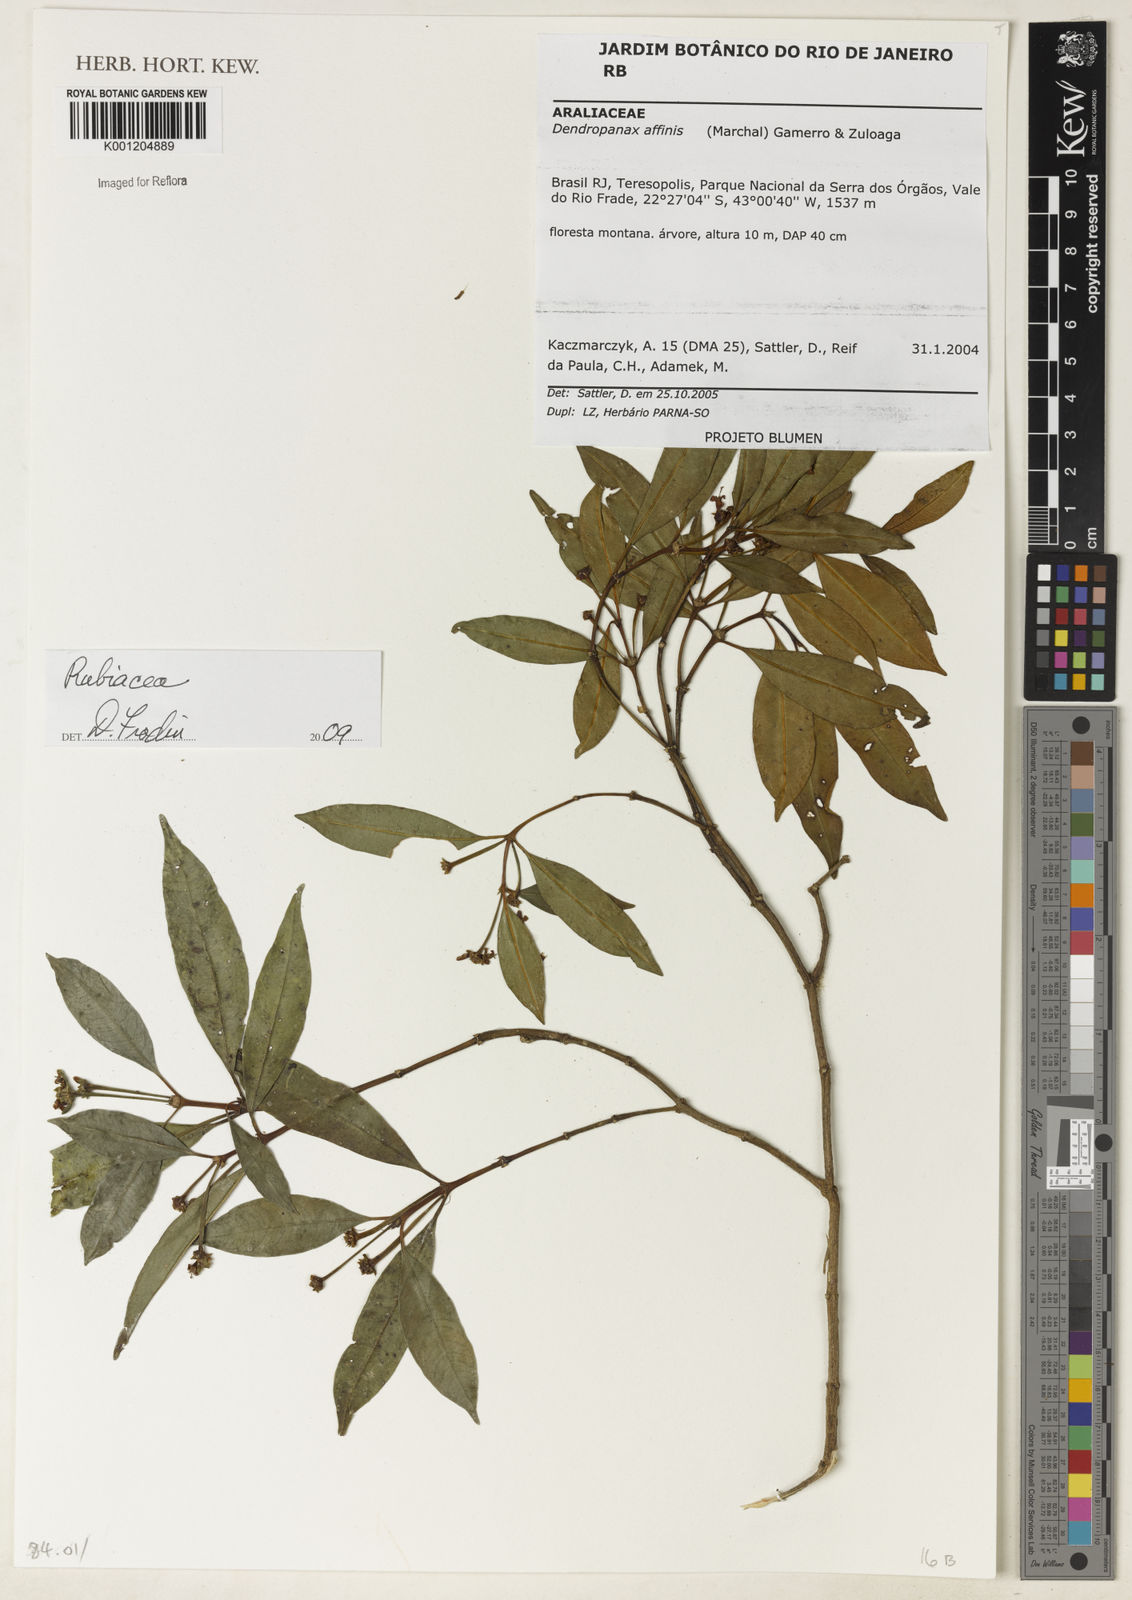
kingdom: Plantae
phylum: Tracheophyta
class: Magnoliopsida
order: Gentianales
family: Rubiaceae
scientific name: Rubiaceae
